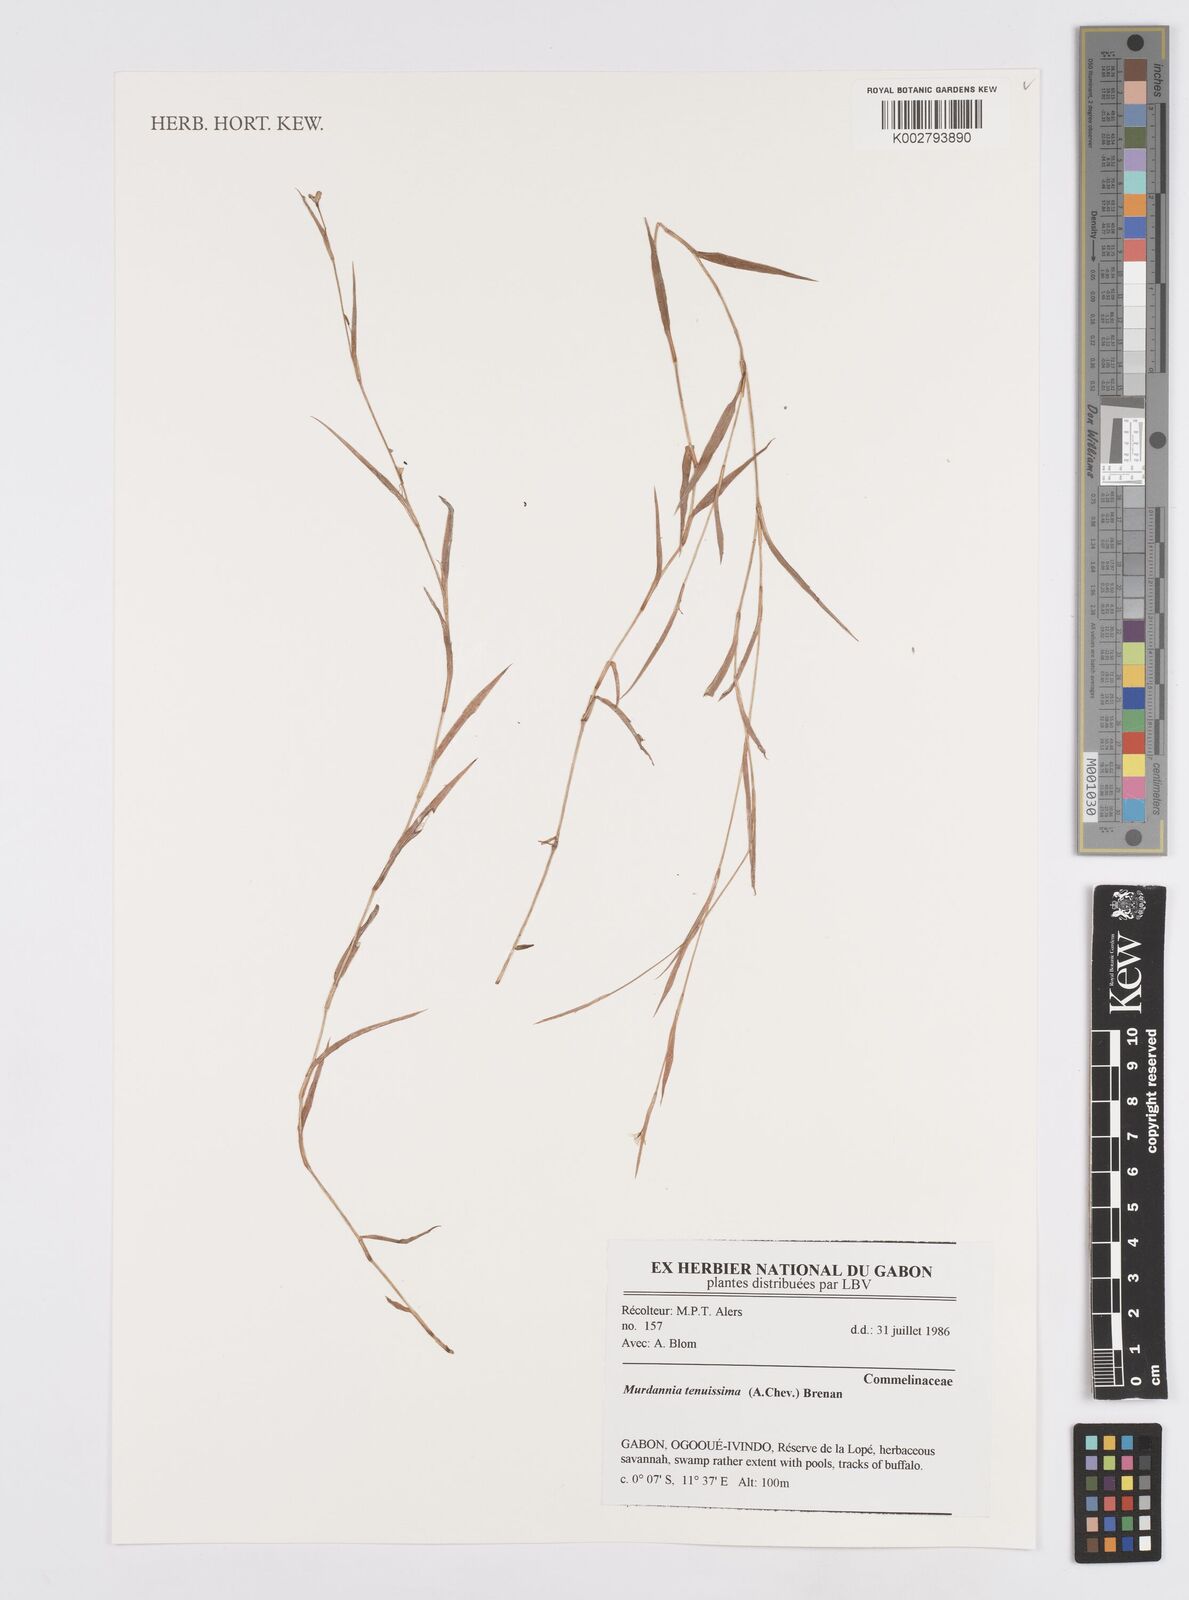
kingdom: Plantae
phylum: Tracheophyta
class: Liliopsida
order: Commelinales
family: Commelinaceae
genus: Murdannia
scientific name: Murdannia tenuissima
